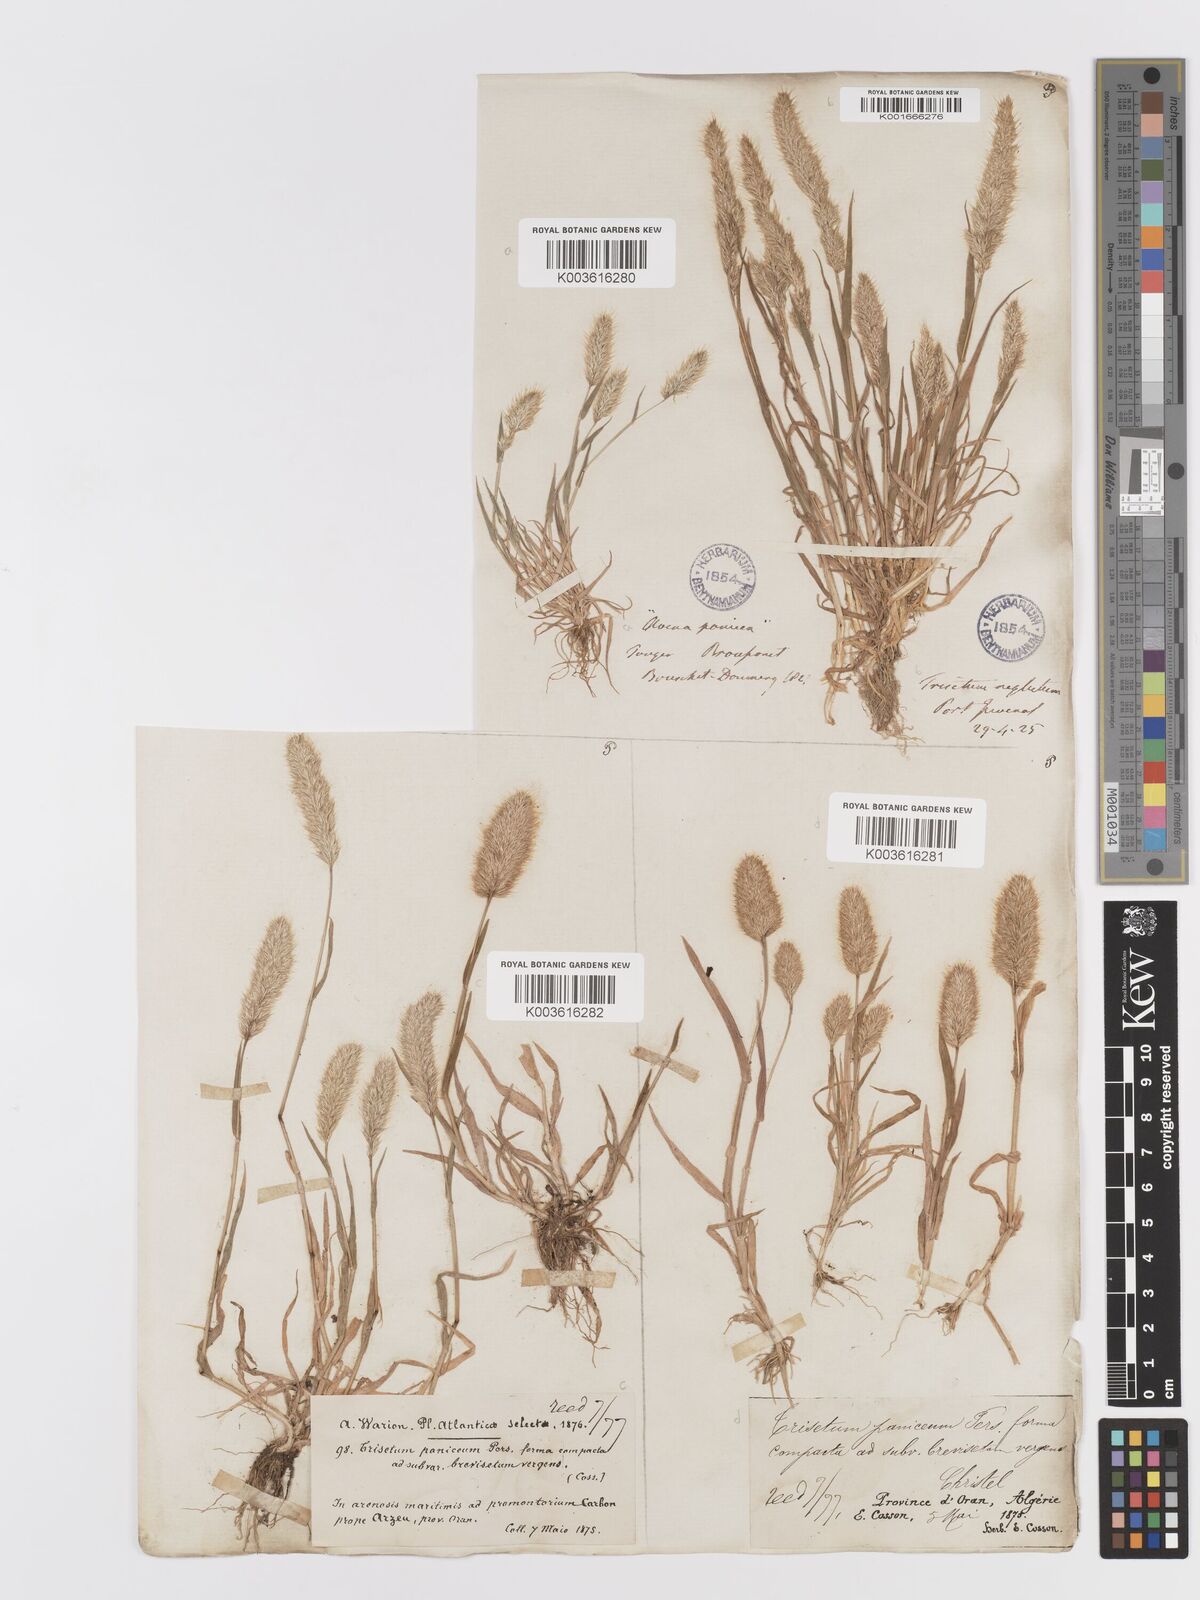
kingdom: Plantae
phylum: Tracheophyta
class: Liliopsida
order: Poales
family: Poaceae
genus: Trisetaria
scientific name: Trisetaria panicea
